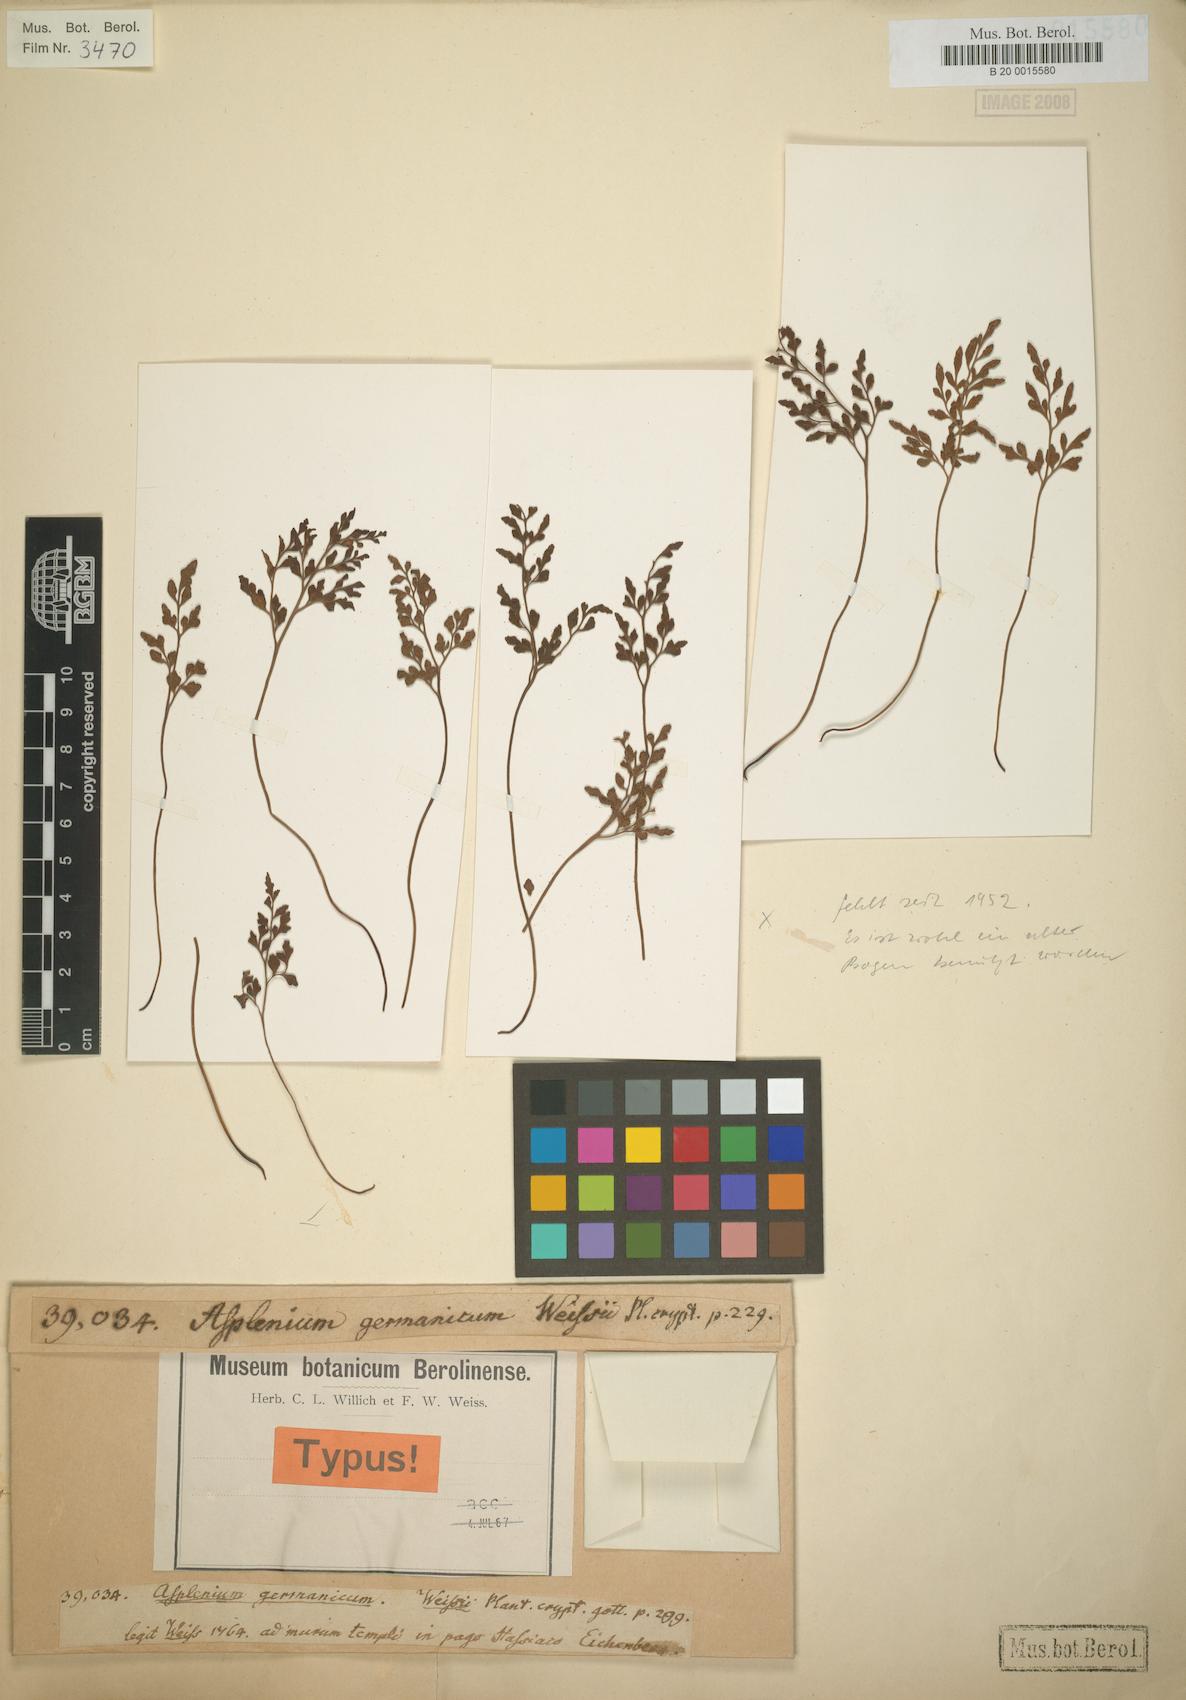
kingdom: Plantae
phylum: Tracheophyta
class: Polypodiopsida
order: Polypodiales
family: Aspleniaceae
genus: Asplenium
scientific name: Asplenium alternifolium
